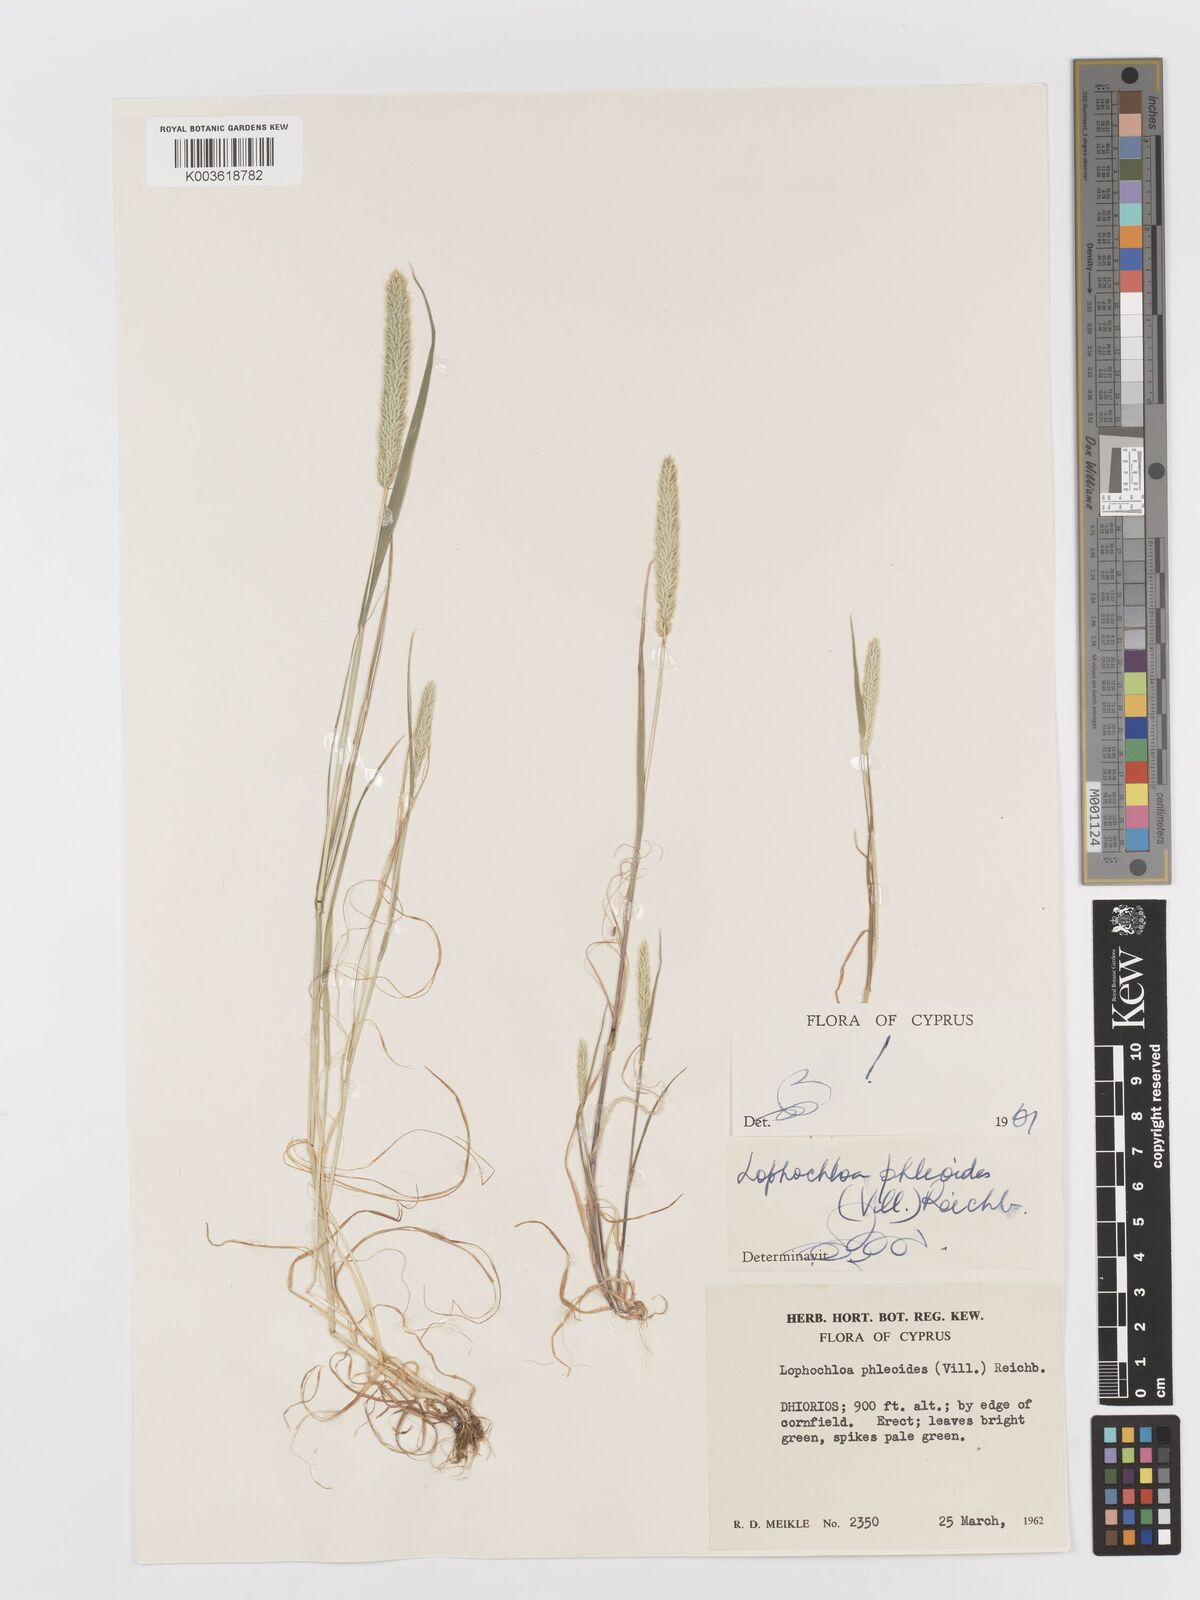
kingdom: Plantae
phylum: Tracheophyta
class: Liliopsida
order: Poales
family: Poaceae
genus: Rostraria
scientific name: Rostraria cristata
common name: Mediterranean hair-grass
